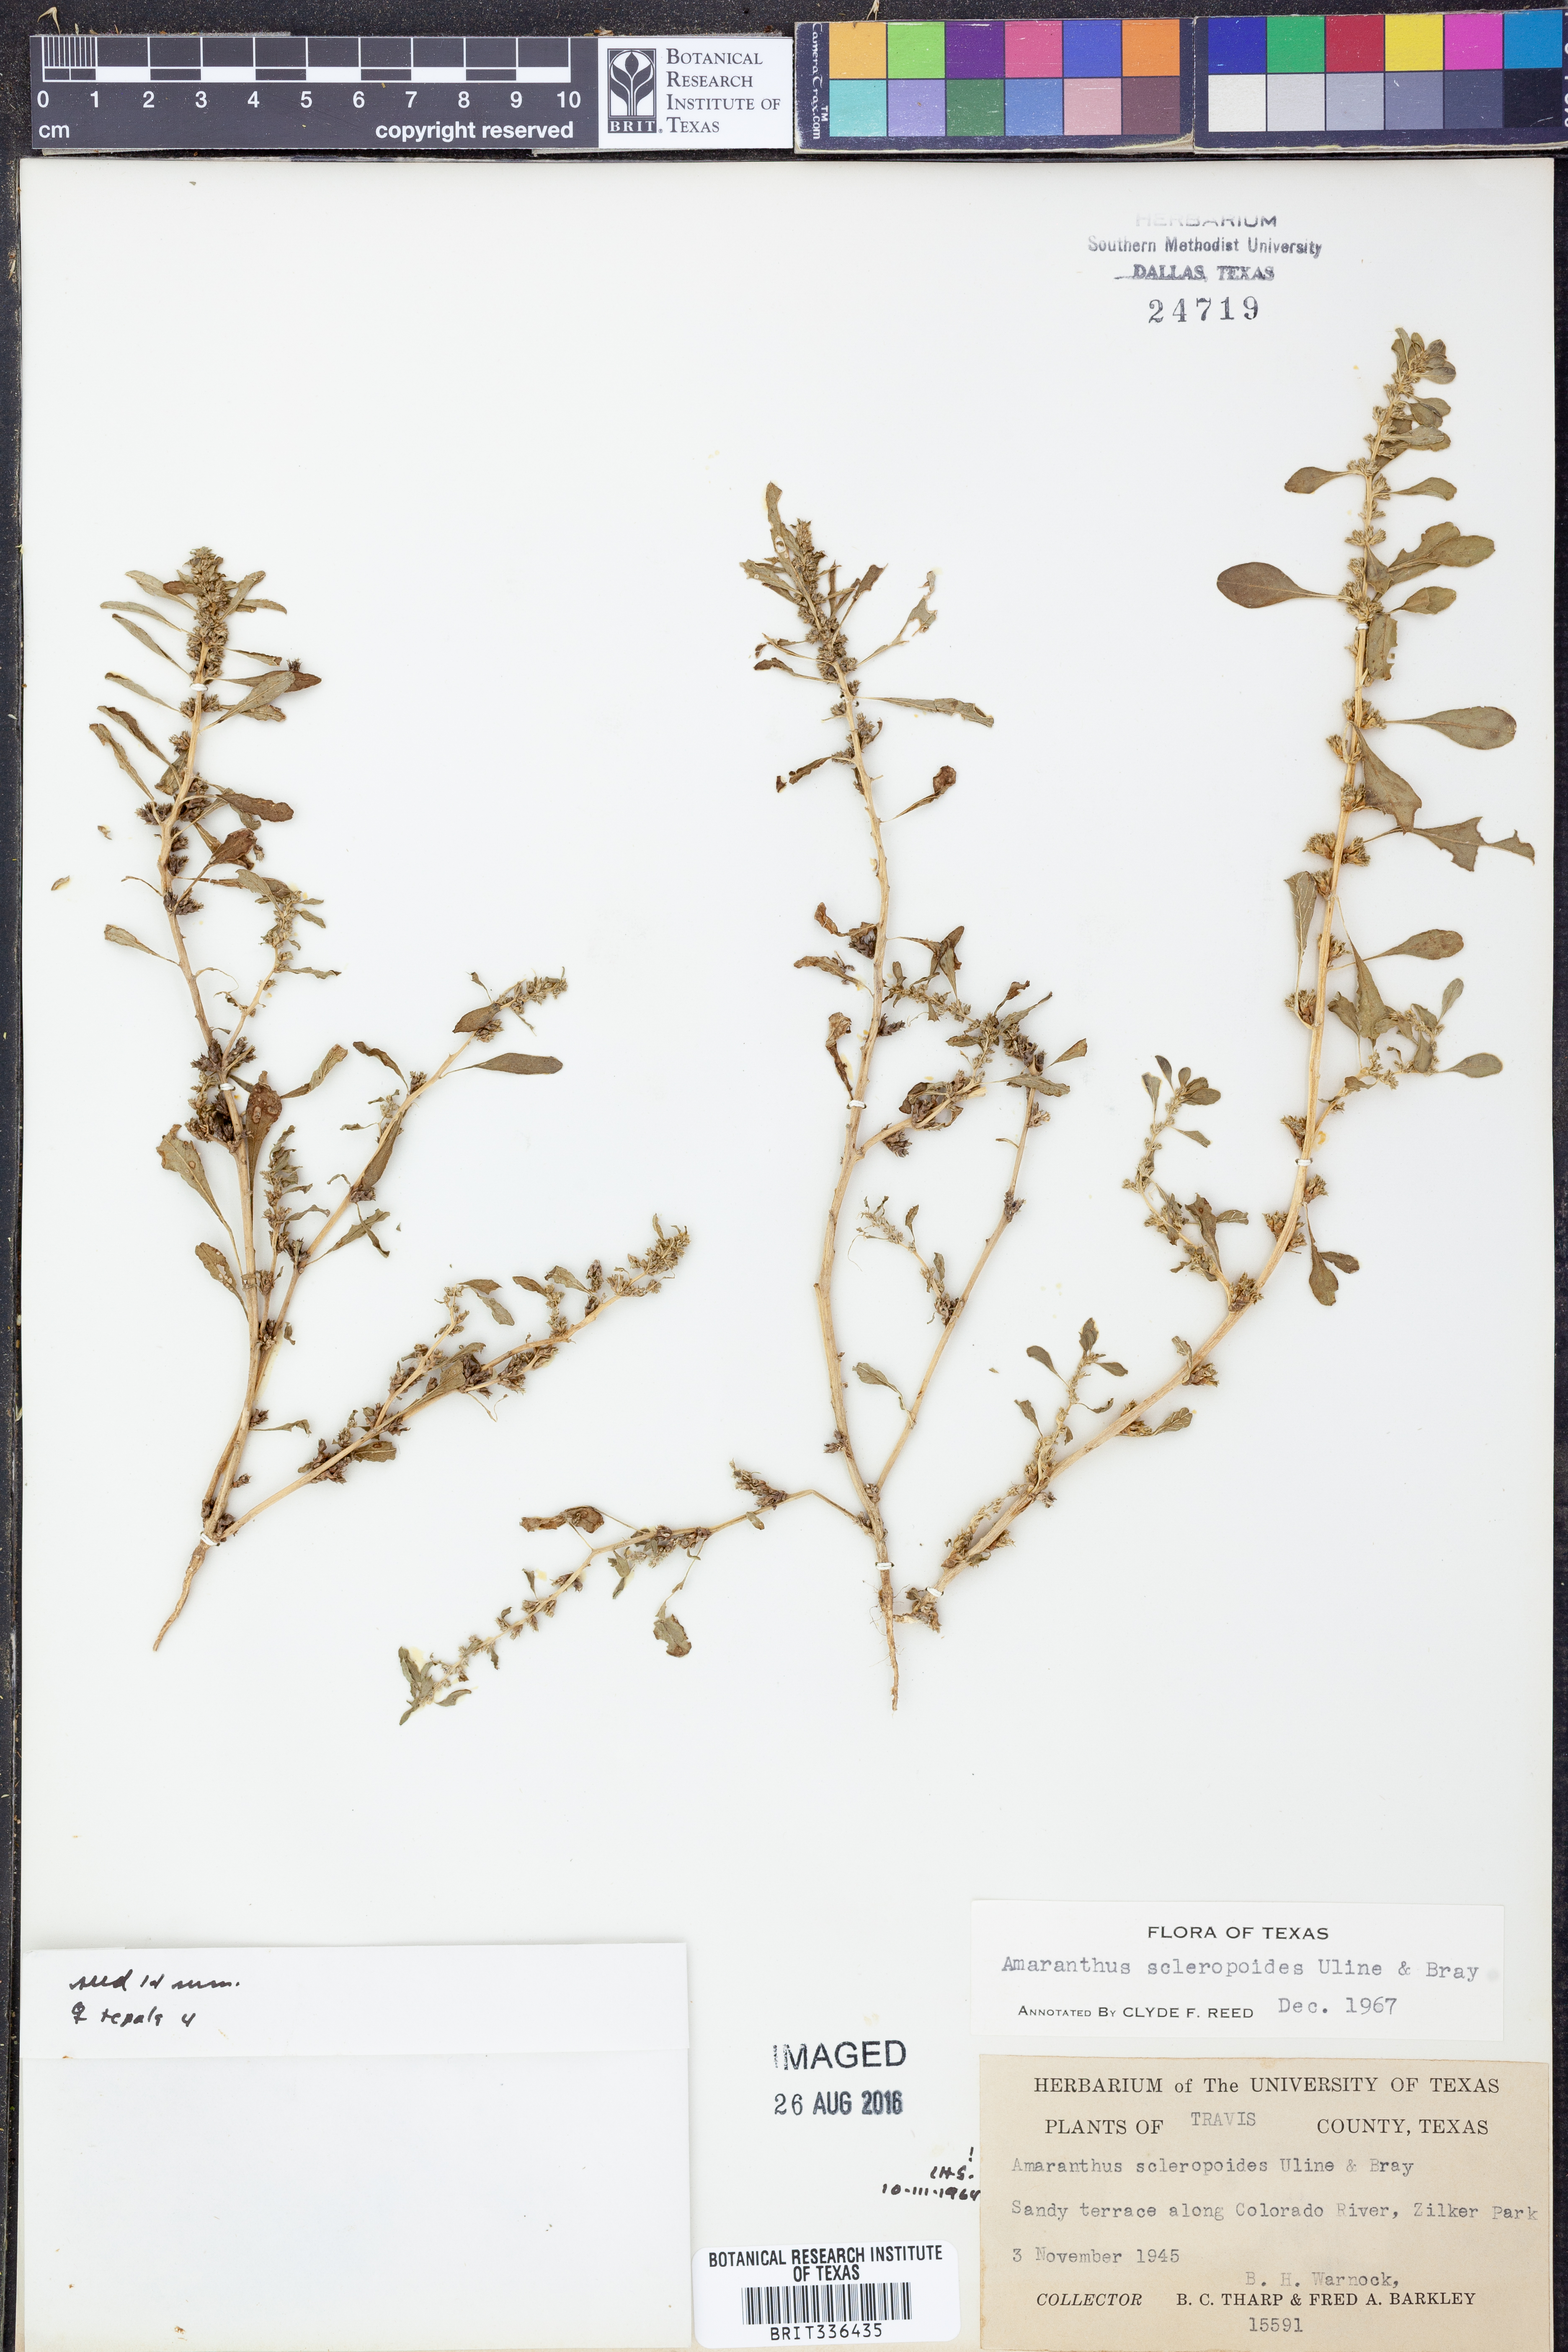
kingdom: Plantae
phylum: Tracheophyta
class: Magnoliopsida
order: Caryophyllales
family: Amaranthaceae
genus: Amaranthus
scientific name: Amaranthus scleropoides
